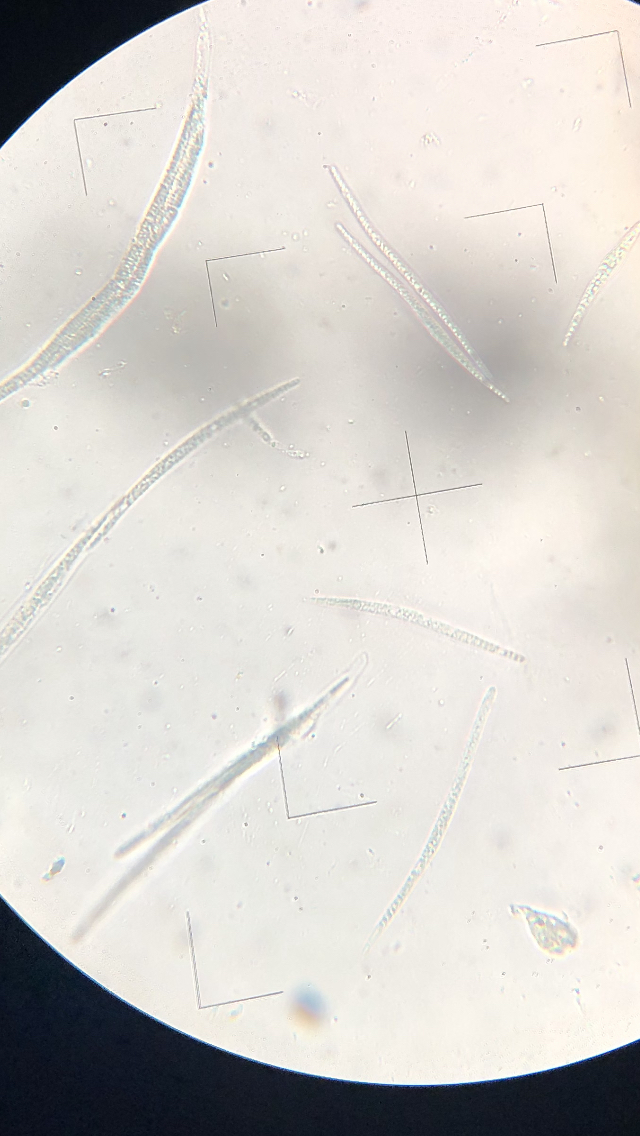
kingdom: Fungi
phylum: Ascomycota
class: Sordariomycetes
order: Diaporthales
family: Sydowiellaceae
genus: Sillia
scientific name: Sillia ferruginea
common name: hasselhals
